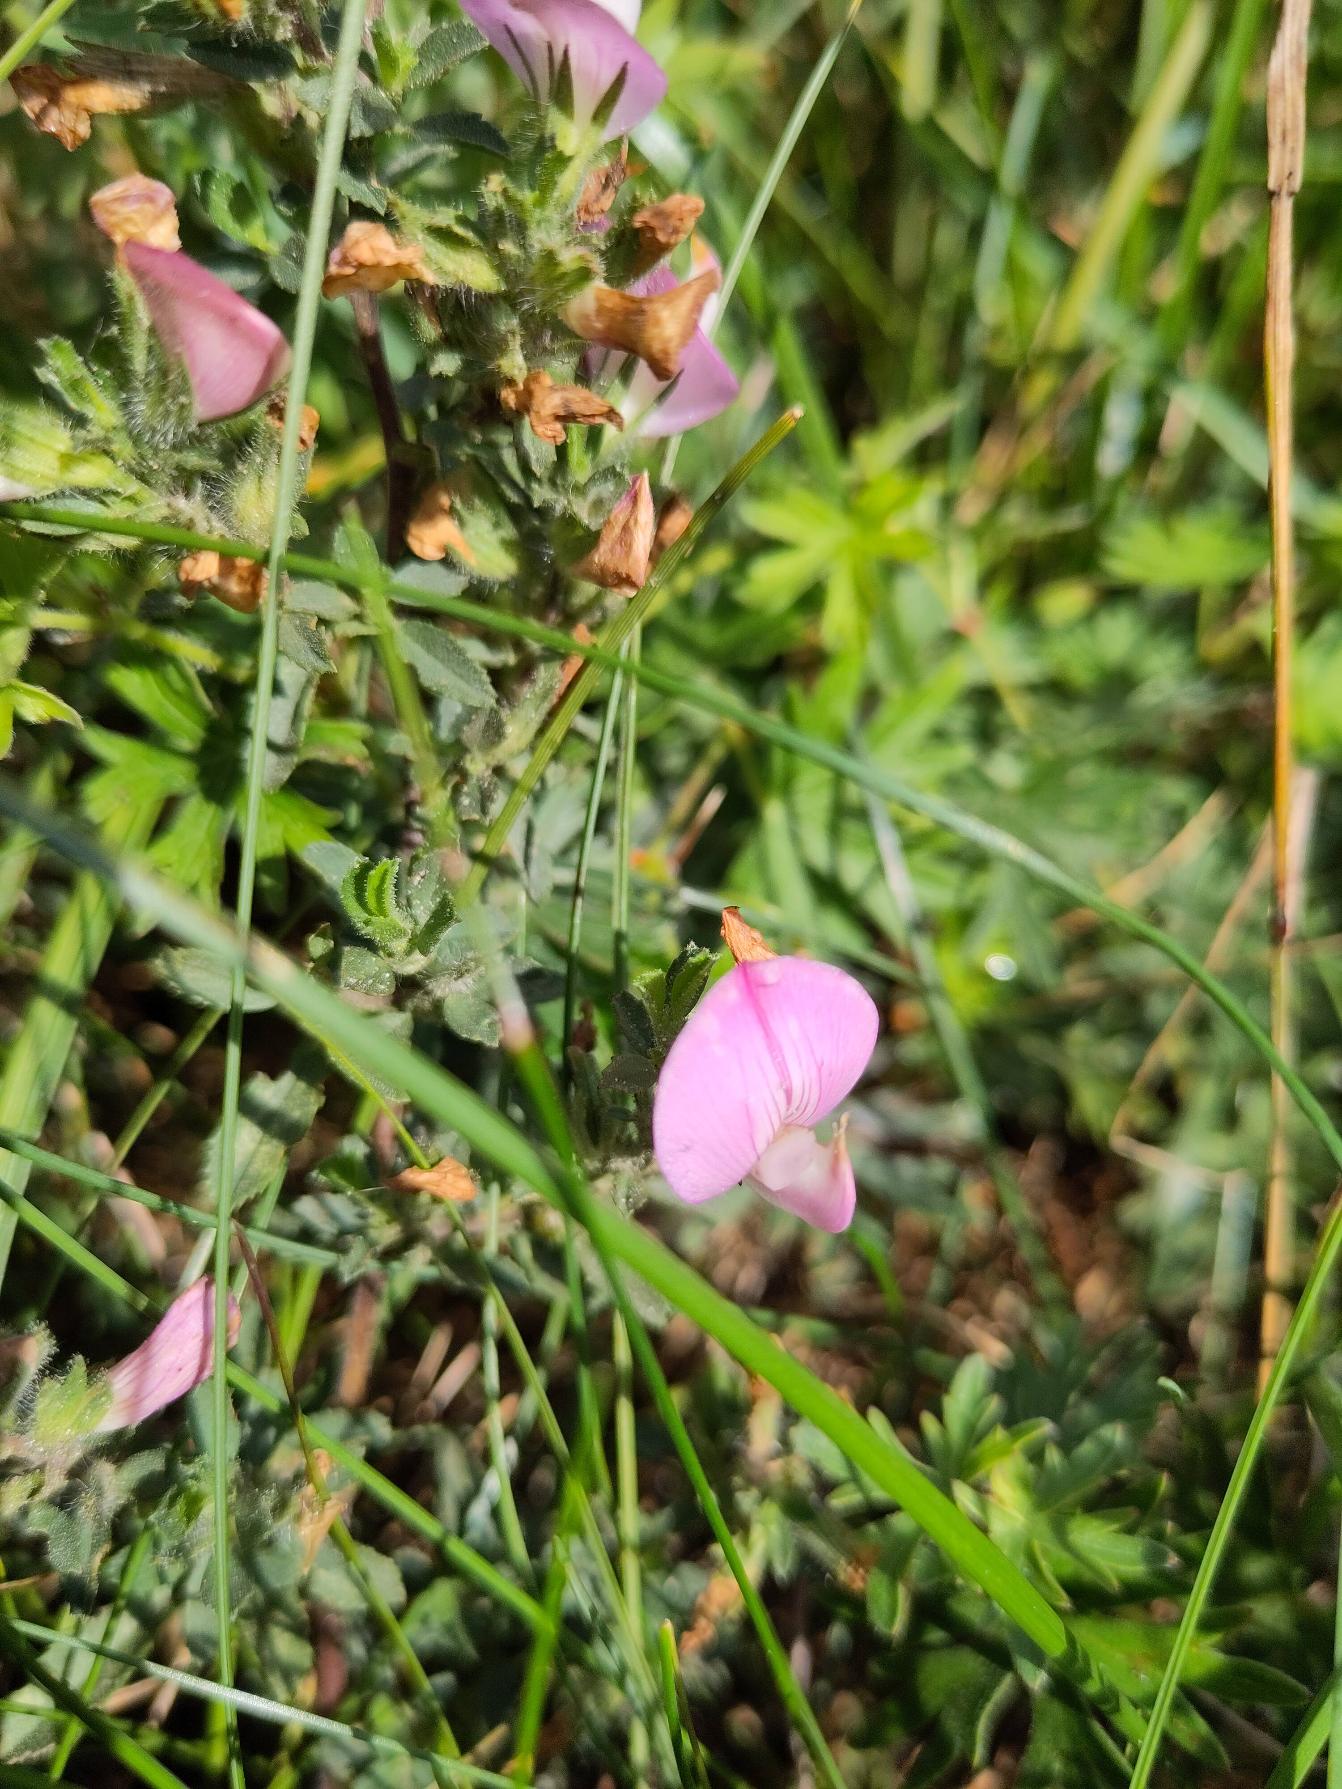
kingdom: Plantae
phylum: Tracheophyta
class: Magnoliopsida
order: Fabales
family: Fabaceae
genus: Ononis
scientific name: Ononis spinosa
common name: Mark-krageklo
